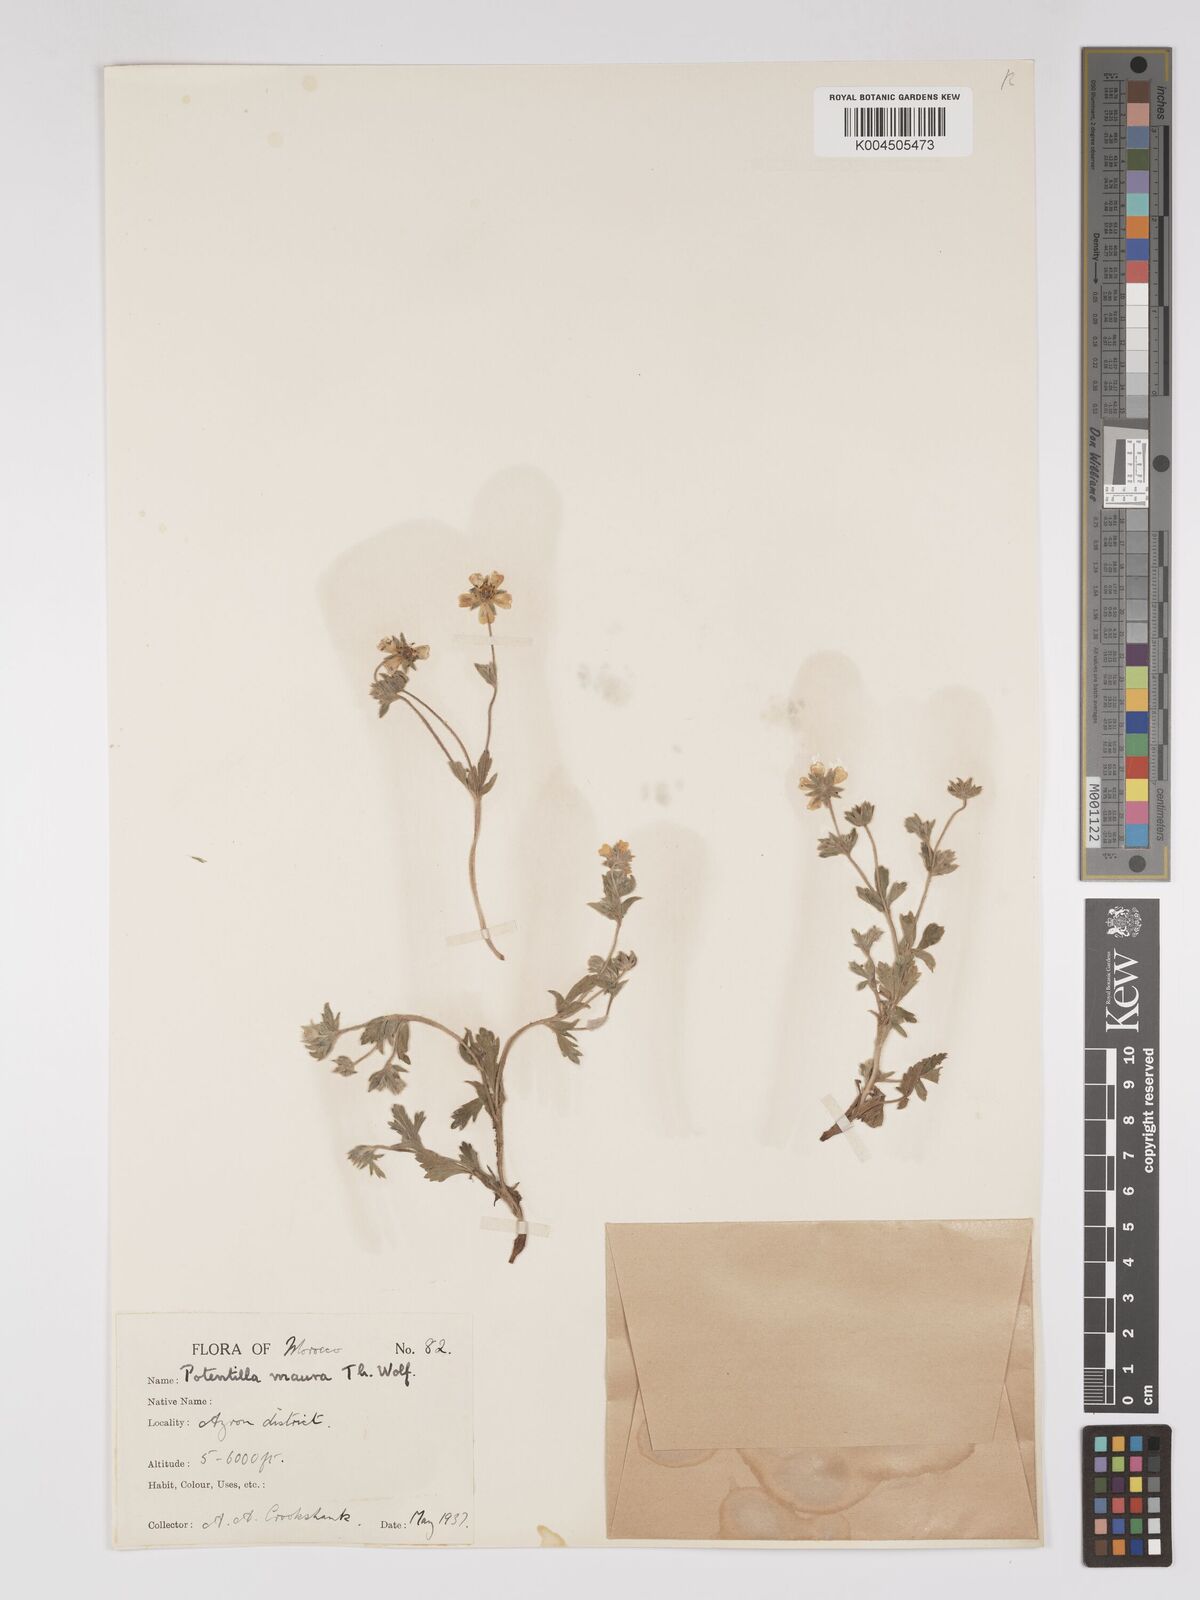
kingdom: Plantae
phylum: Tracheophyta
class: Magnoliopsida
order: Rosales
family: Rosaceae
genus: Potentilla
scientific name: Potentilla maura
